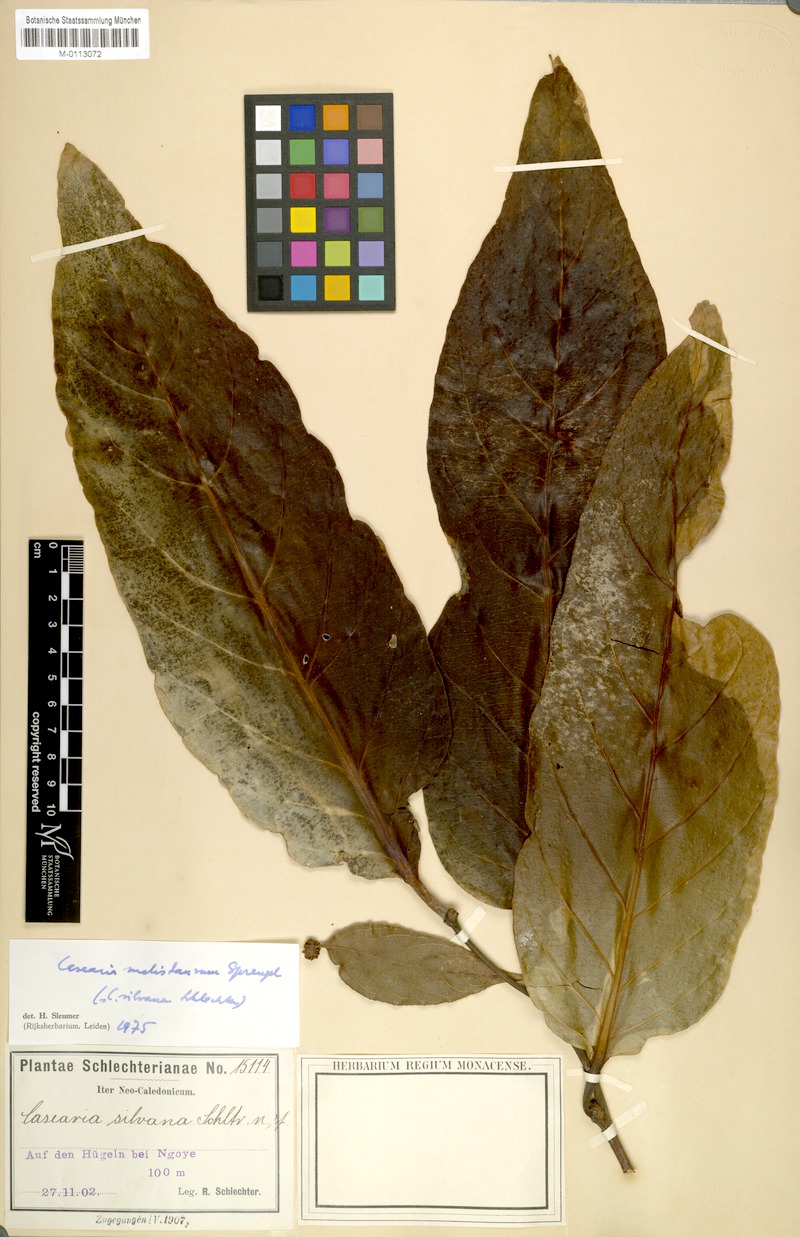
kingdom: Plantae
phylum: Tracheophyta
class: Magnoliopsida
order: Malpighiales
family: Salicaceae
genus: Casearia
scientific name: Casearia silvana
